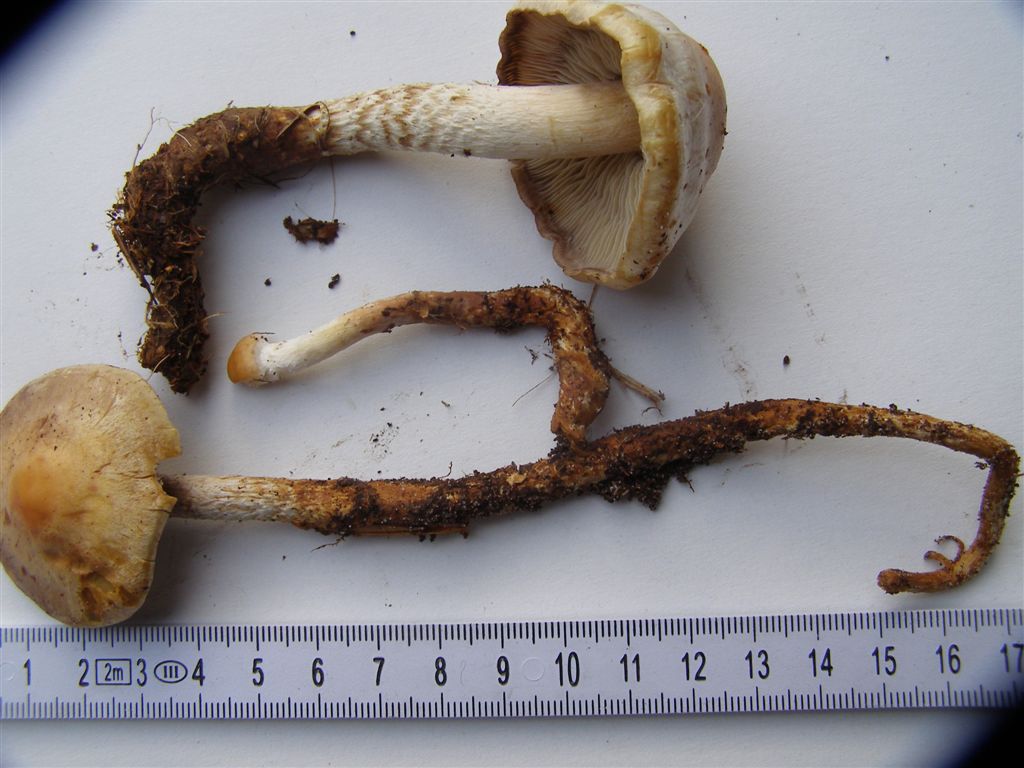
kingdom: Fungi
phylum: Basidiomycota
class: Agaricomycetes
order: Agaricales
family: Strophariaceae
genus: Hypholoma
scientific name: Hypholoma radicosum
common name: pælerods-svovlhat
